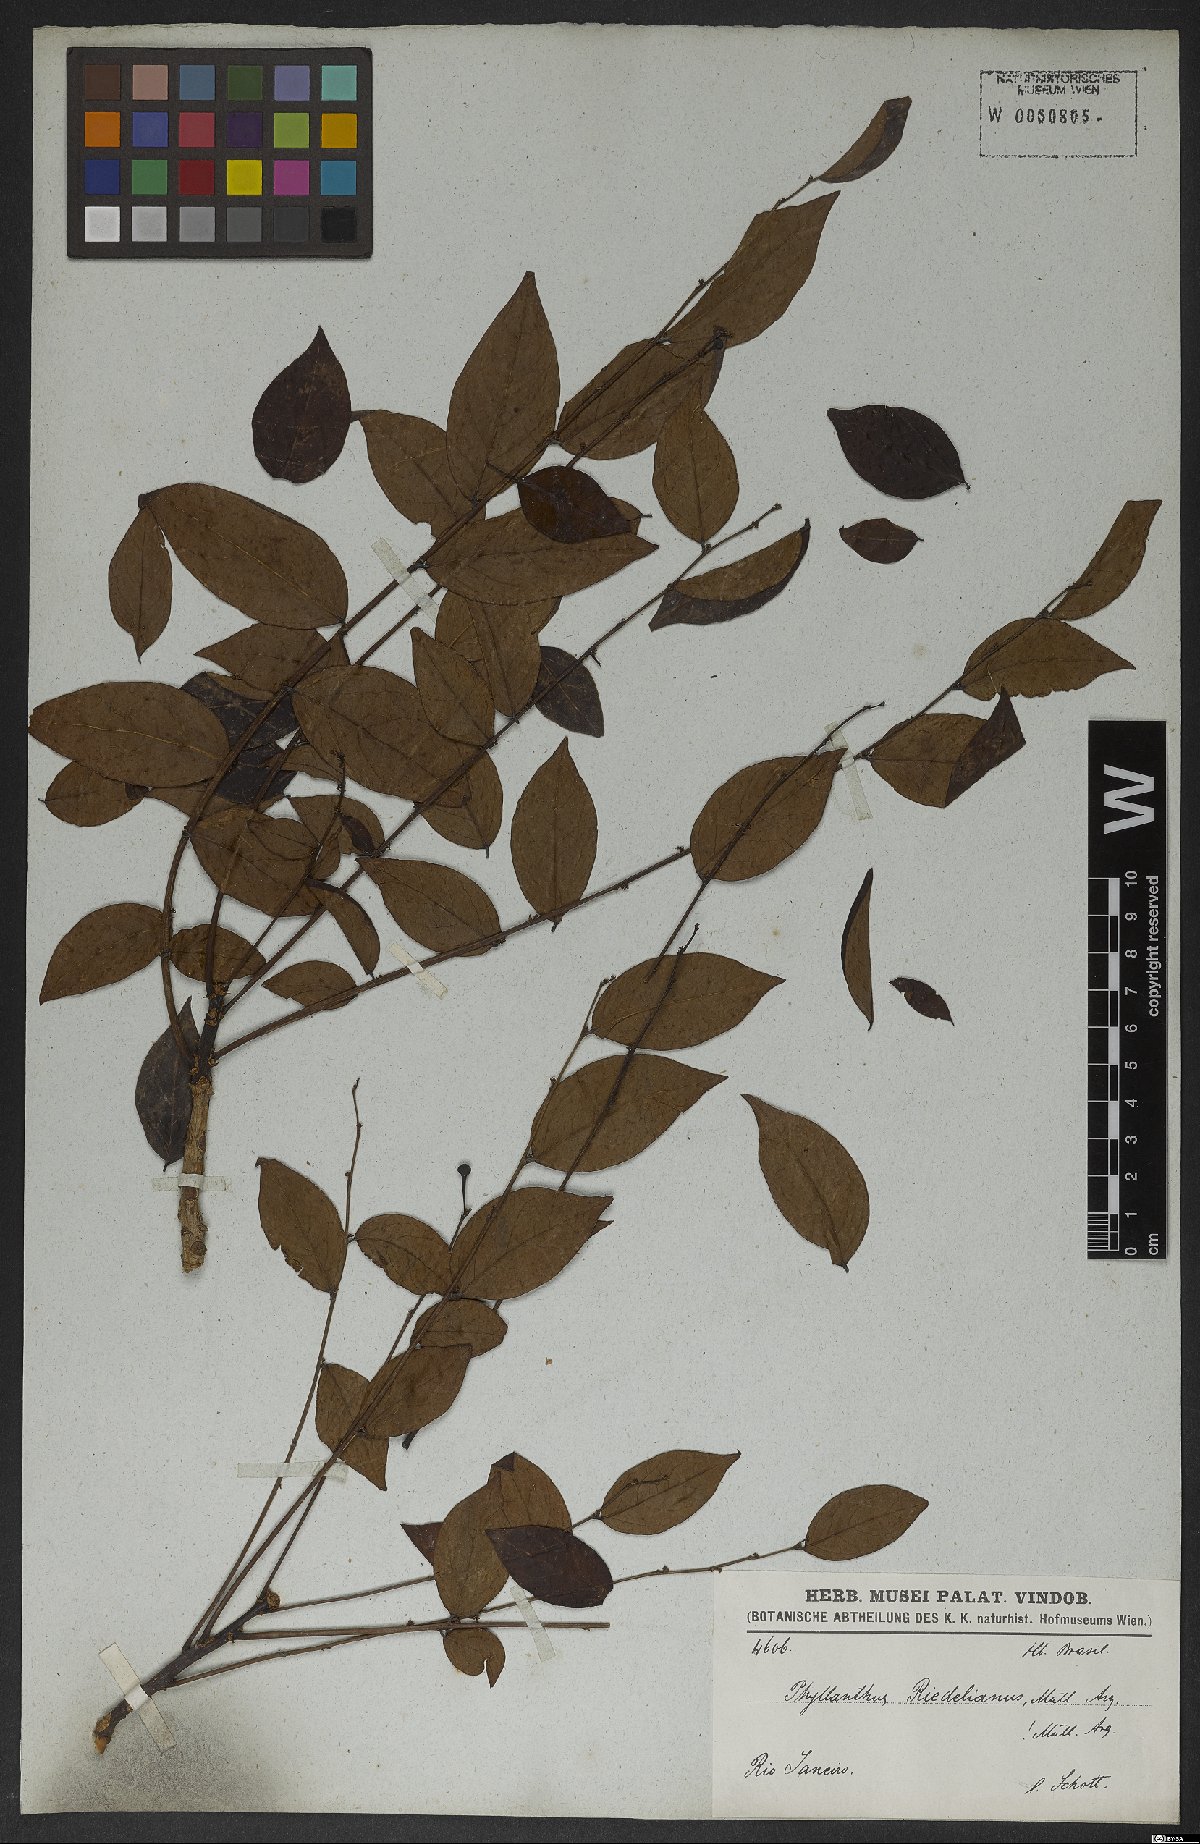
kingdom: Plantae
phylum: Tracheophyta
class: Magnoliopsida
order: Malpighiales
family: Phyllanthaceae
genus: Phyllanthus
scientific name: Phyllanthus riedelianus
